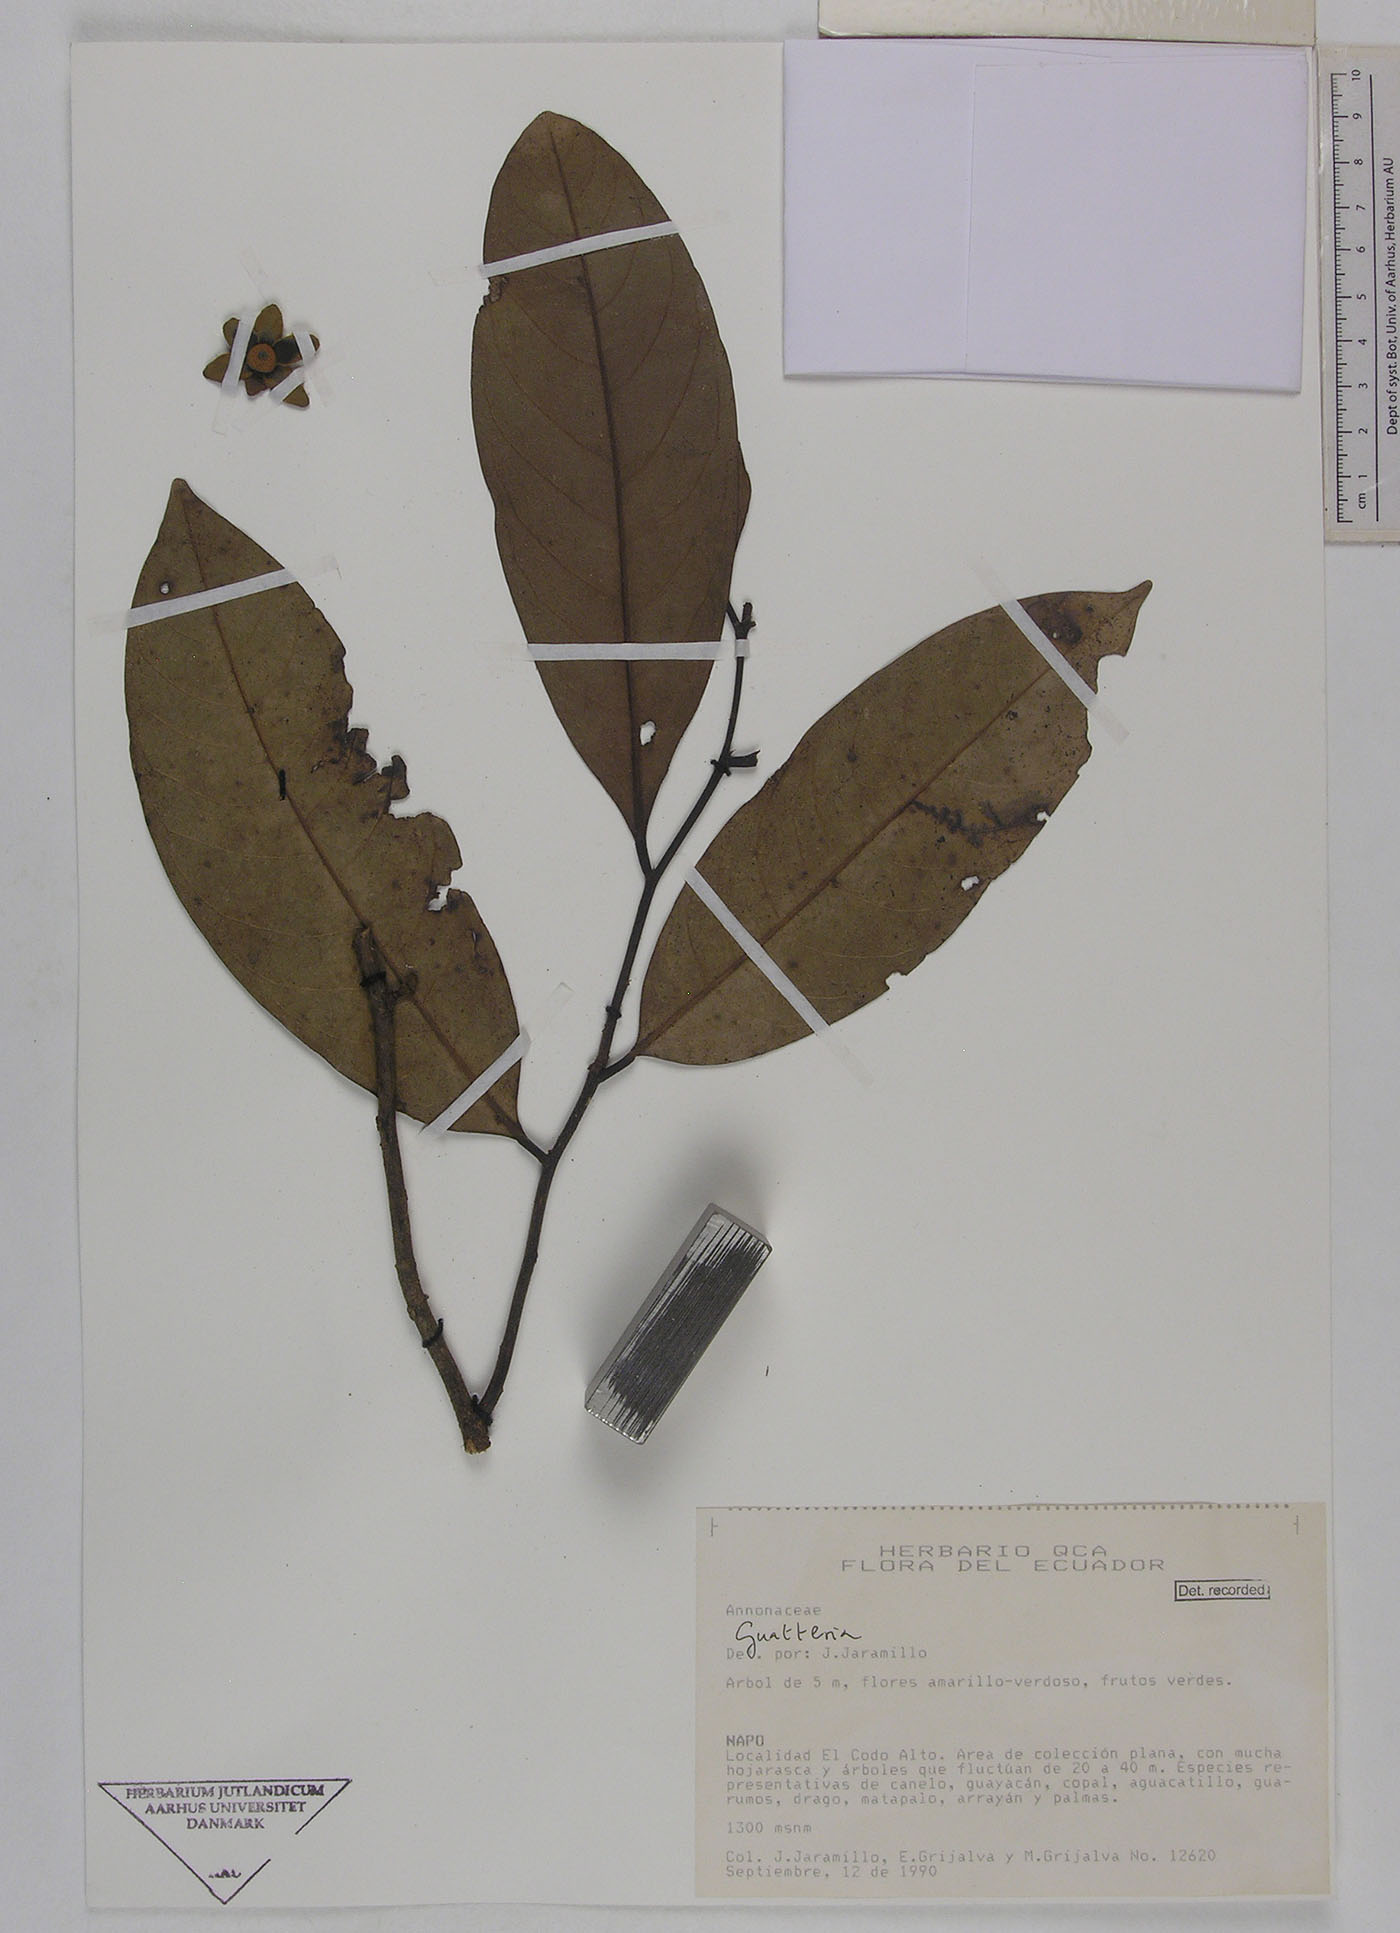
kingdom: Plantae
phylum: Tracheophyta
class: Magnoliopsida
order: Magnoliales
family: Annonaceae
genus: Guatteria
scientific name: Guatteria goudotiana
